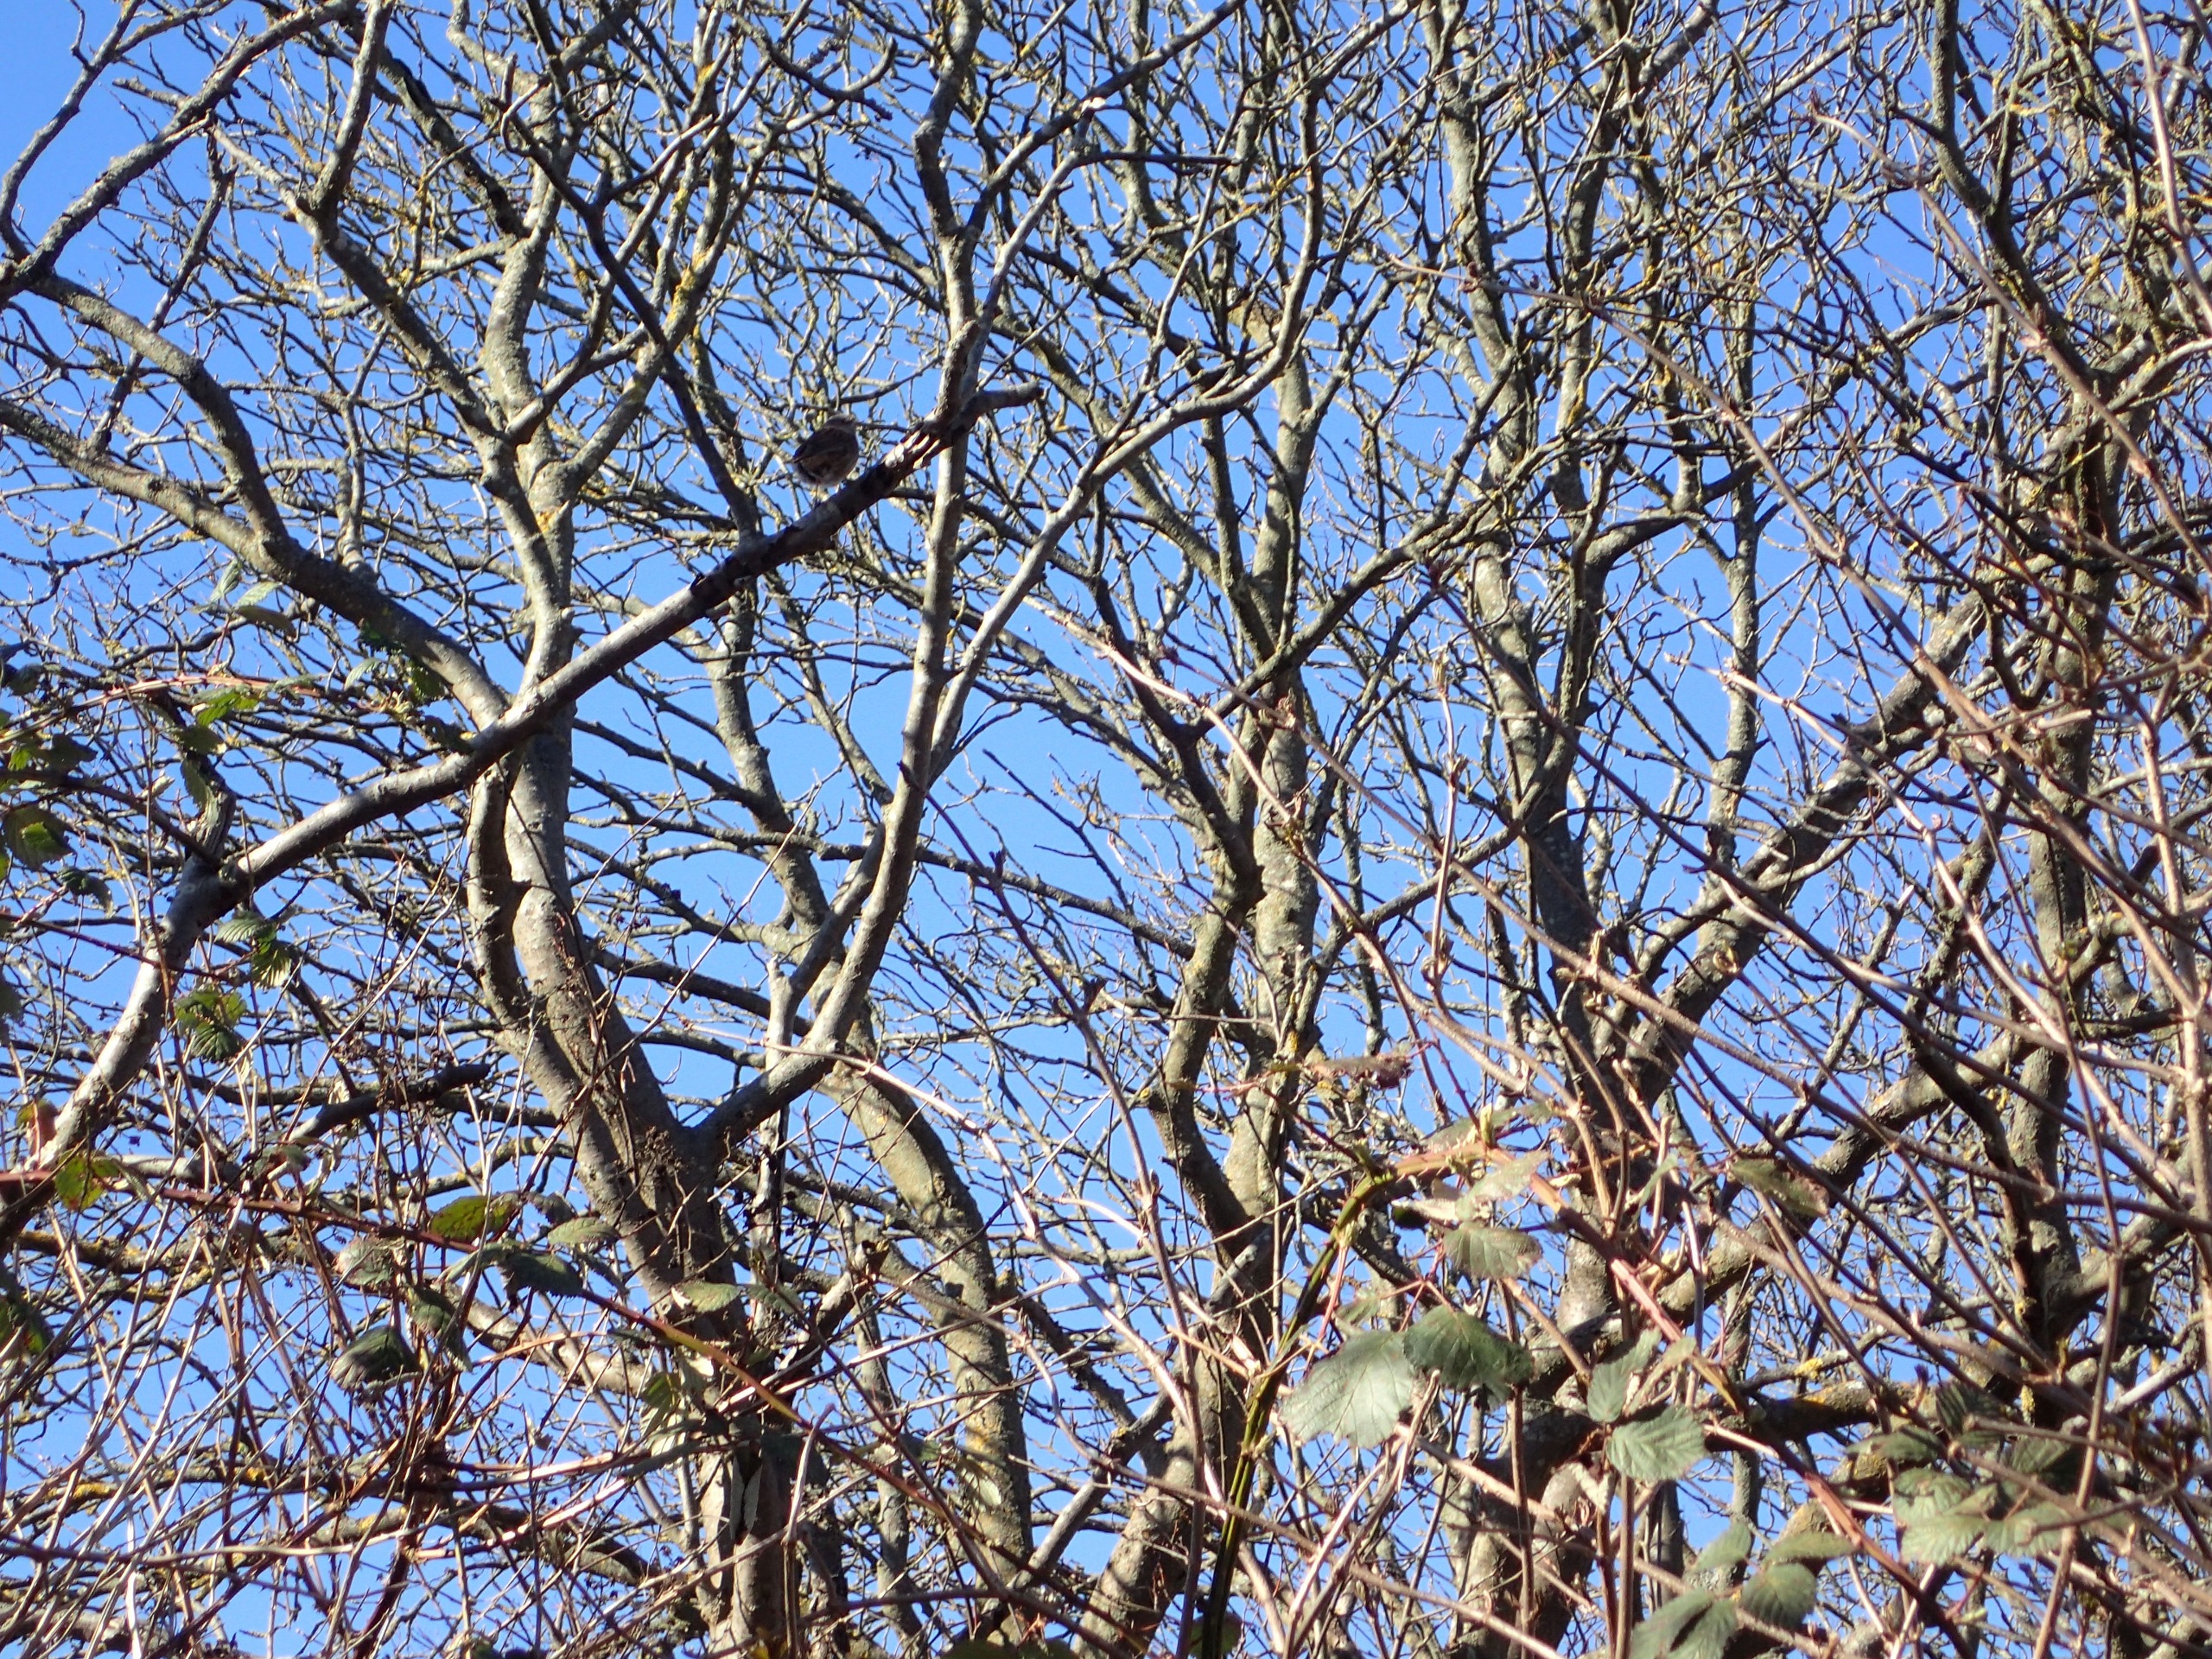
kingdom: Animalia
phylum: Chordata
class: Aves
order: Passeriformes
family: Prunellidae
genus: Prunella
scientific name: Prunella modularis
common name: Jernspurv
